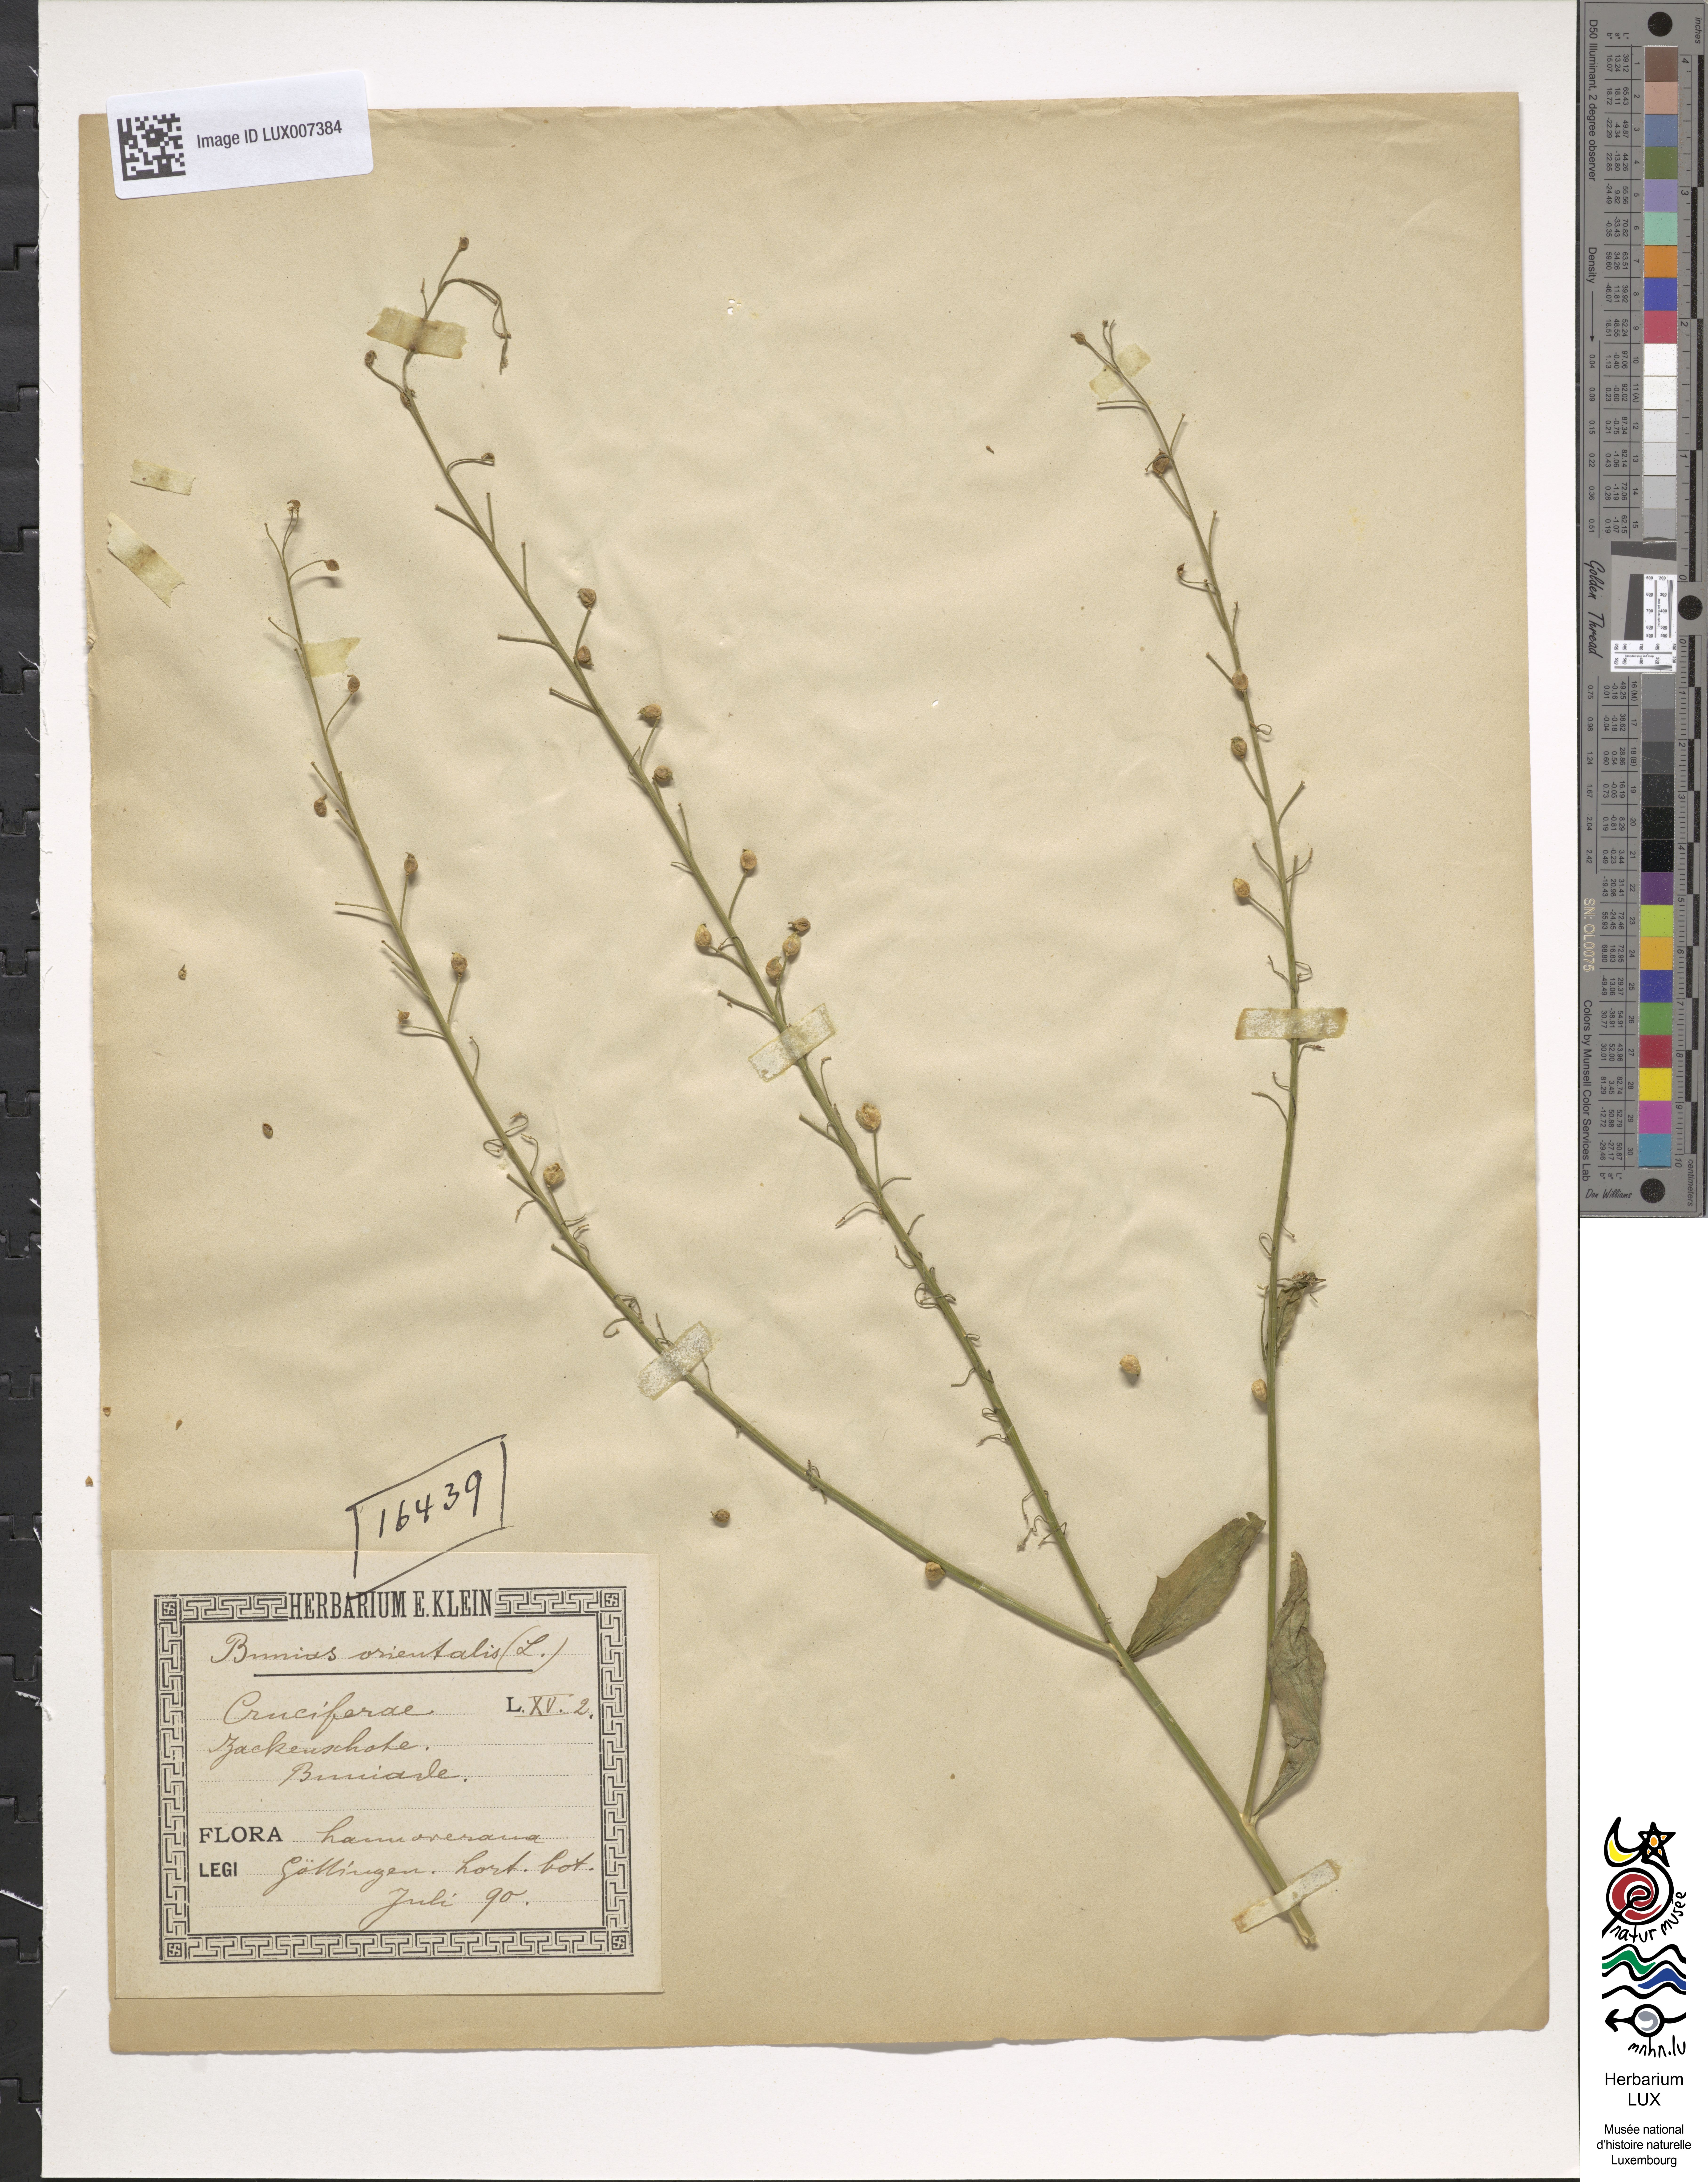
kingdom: Plantae
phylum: Tracheophyta
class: Magnoliopsida
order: Brassicales
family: Brassicaceae
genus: Bunias
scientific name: Bunias orientalis
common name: Warty-cabbage
